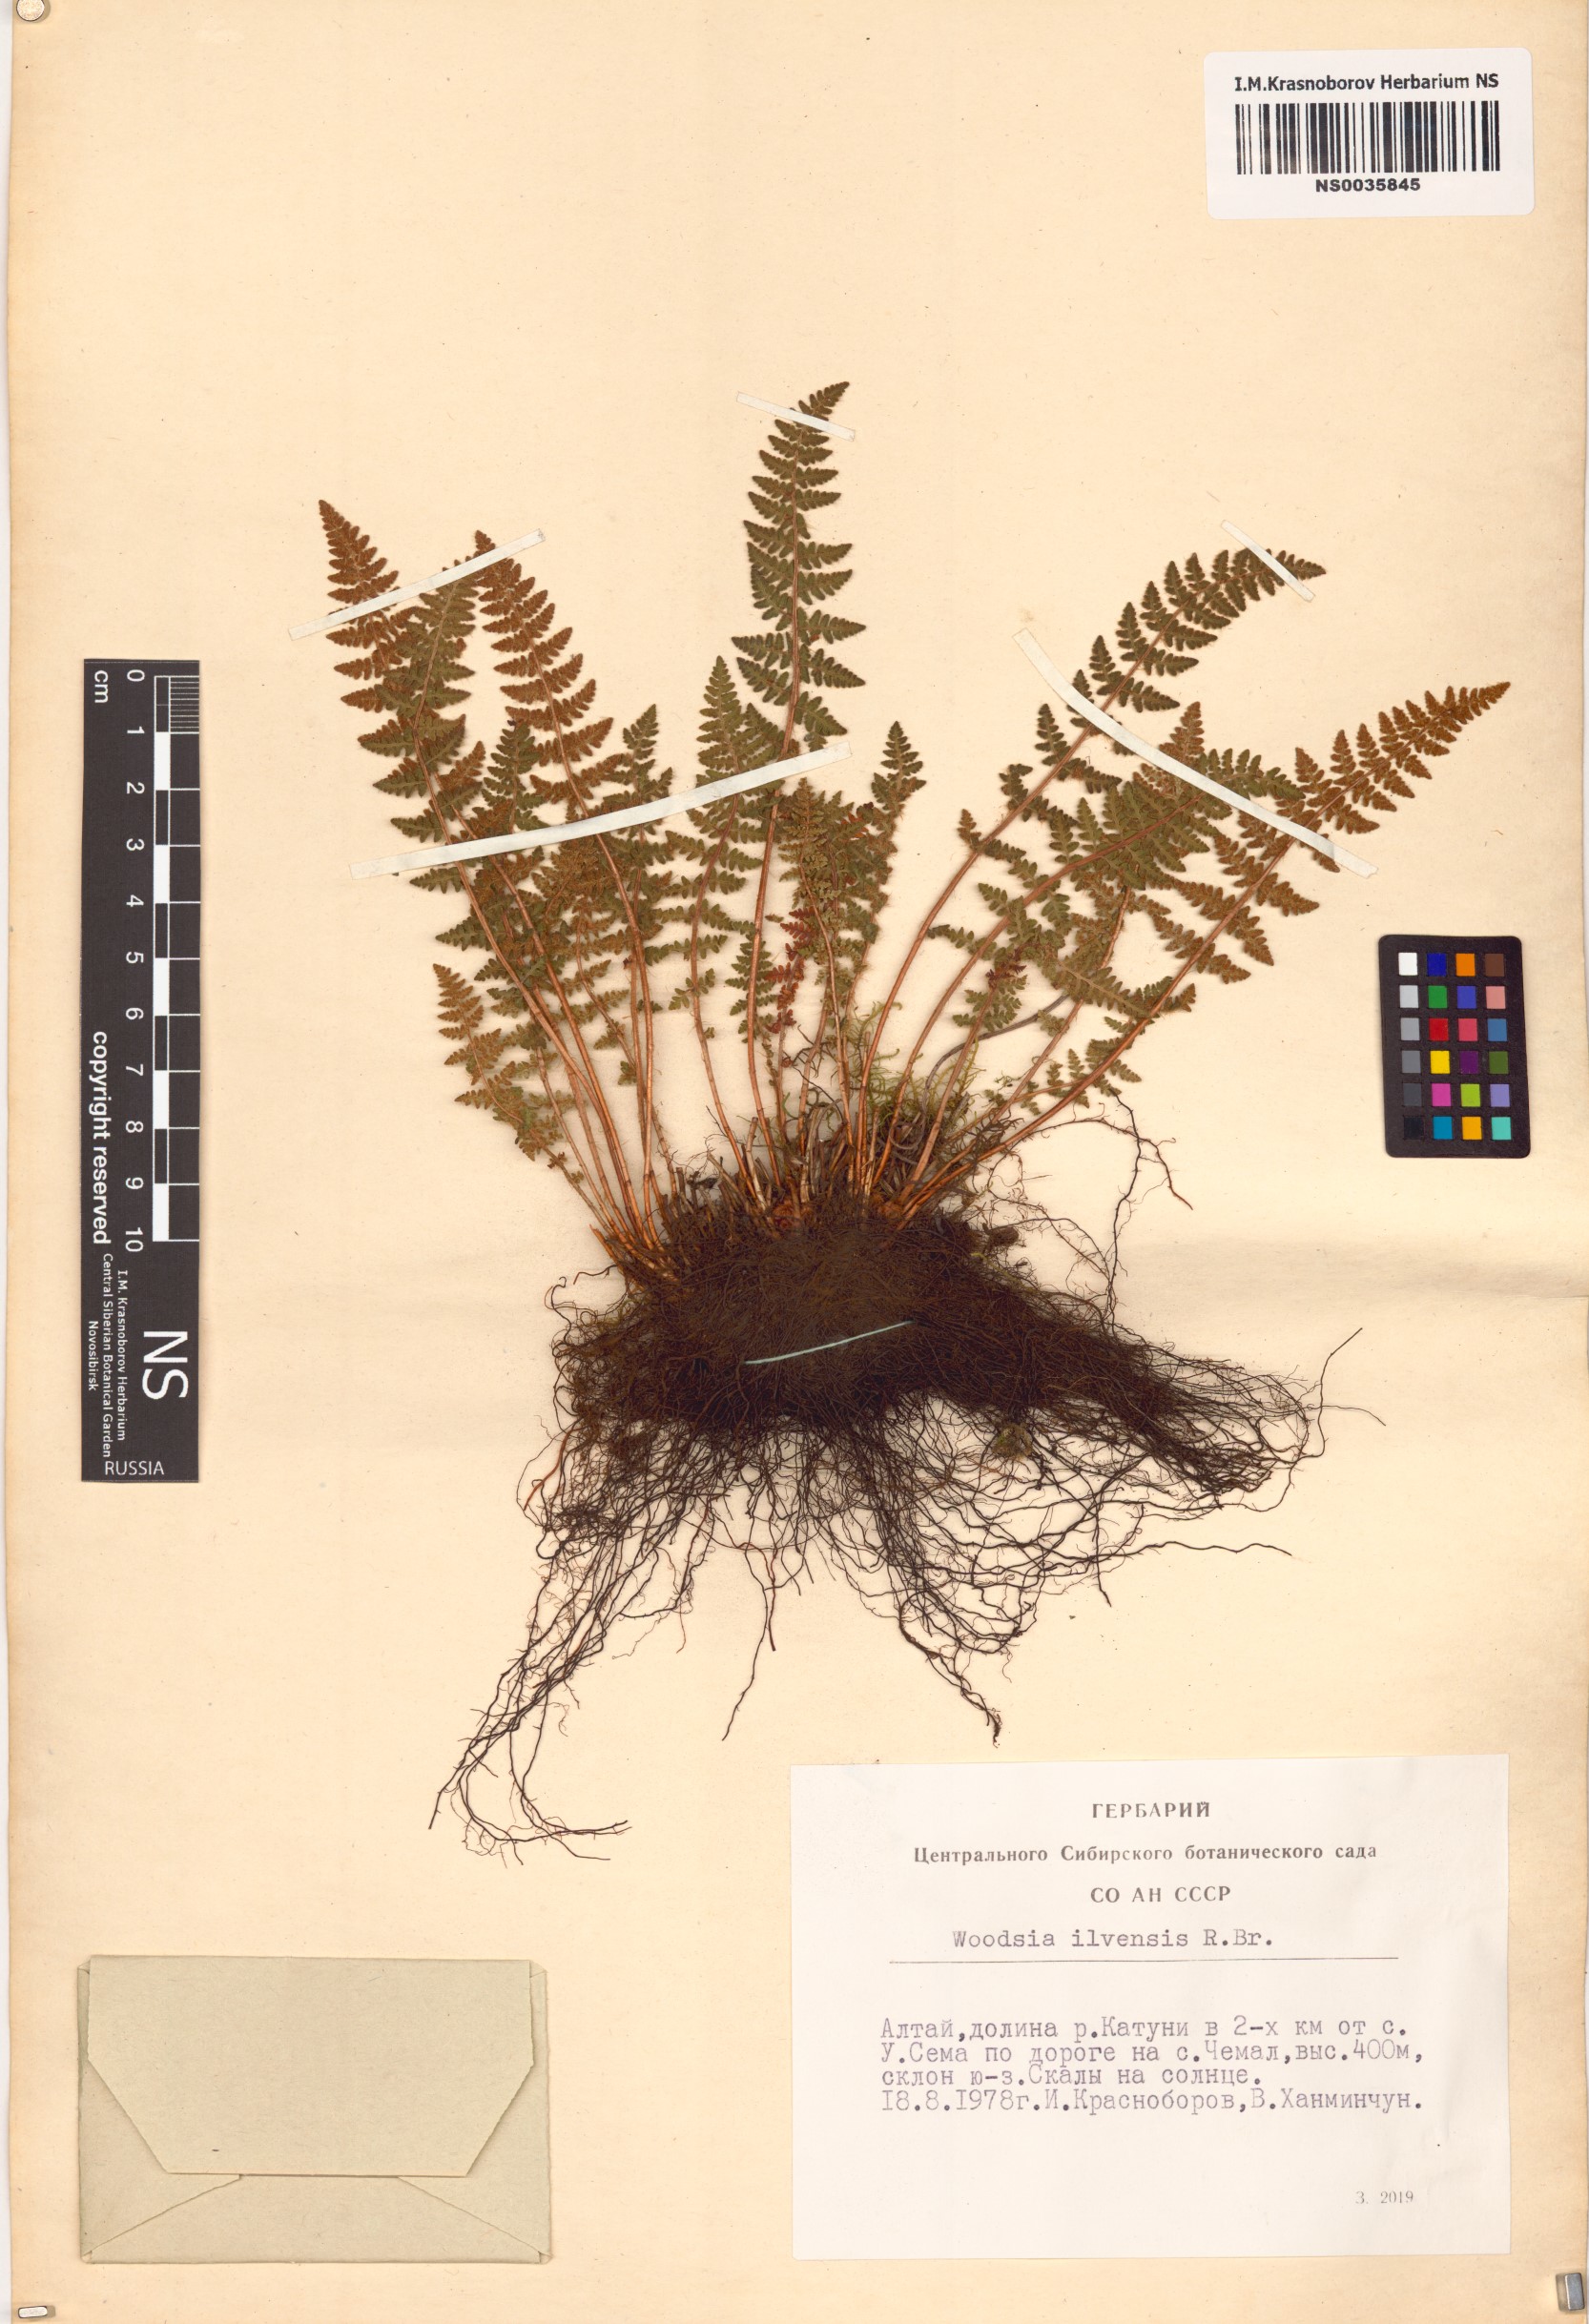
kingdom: Plantae
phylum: Tracheophyta
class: Polypodiopsida
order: Polypodiales
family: Woodsiaceae
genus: Woodsia
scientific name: Woodsia ilvensis
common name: Fragrant woodsia
